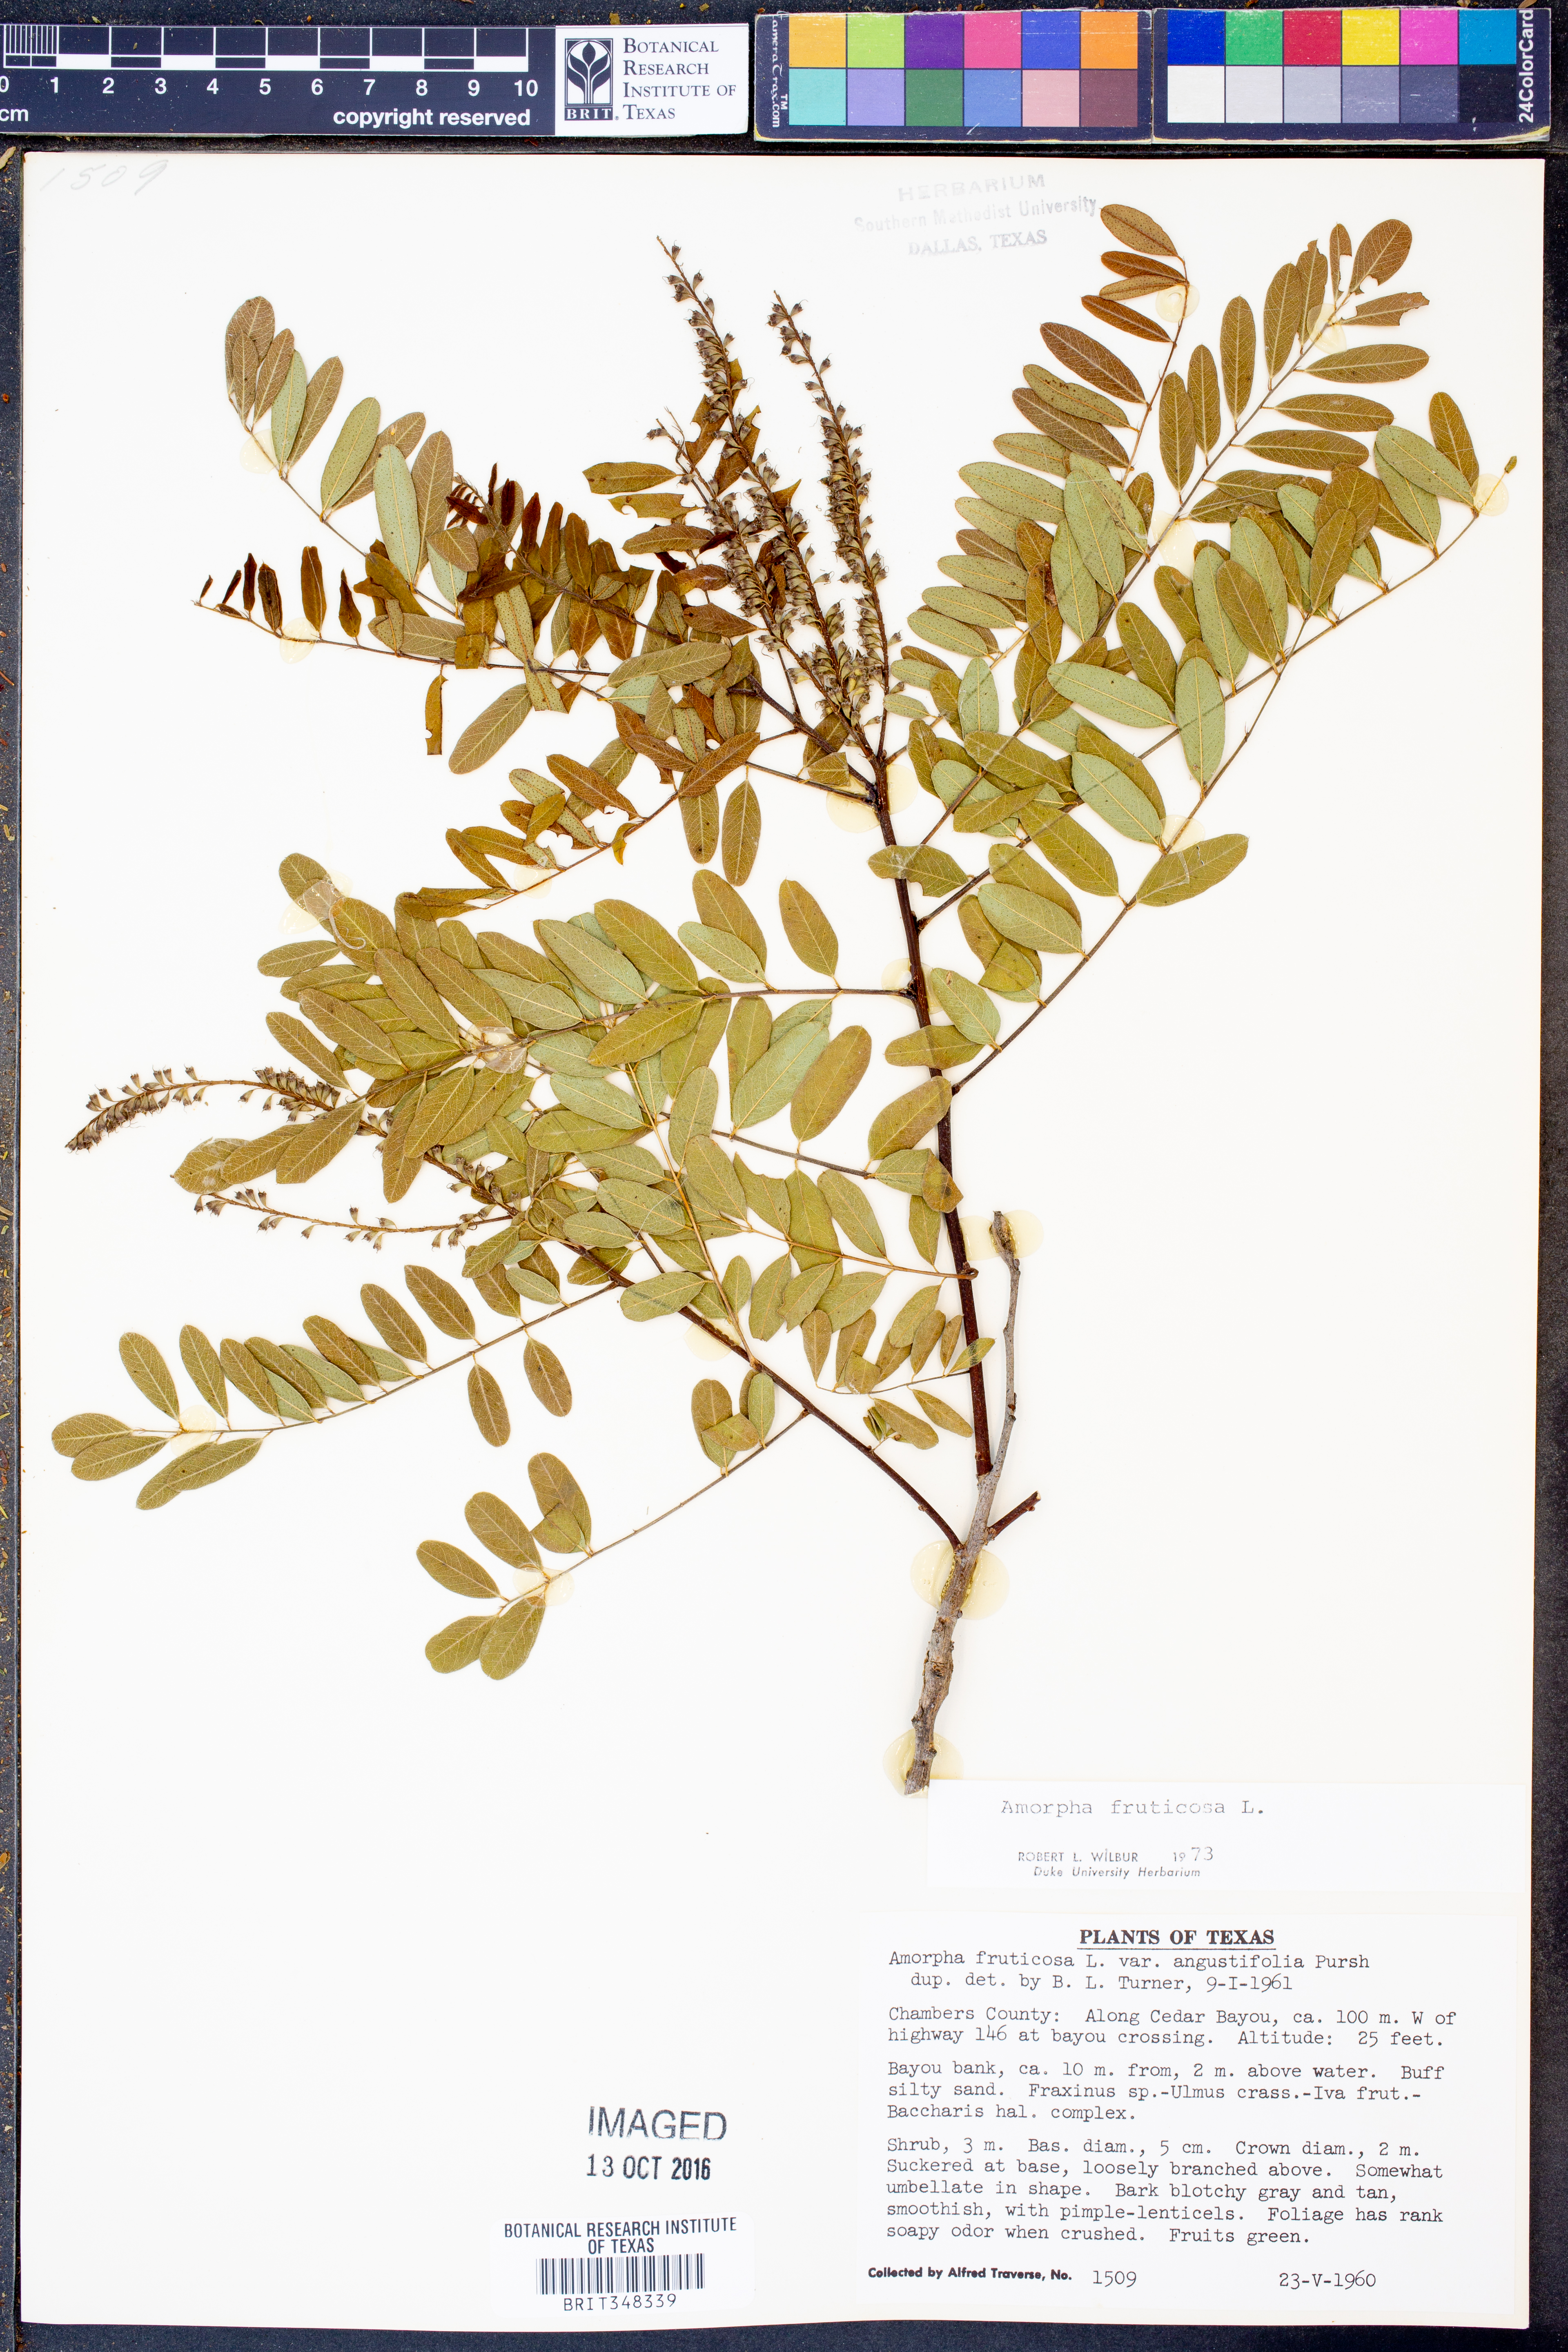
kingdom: Plantae
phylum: Tracheophyta
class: Magnoliopsida
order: Fabales
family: Fabaceae
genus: Amorpha
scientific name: Amorpha fruticosa
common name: False indigo
